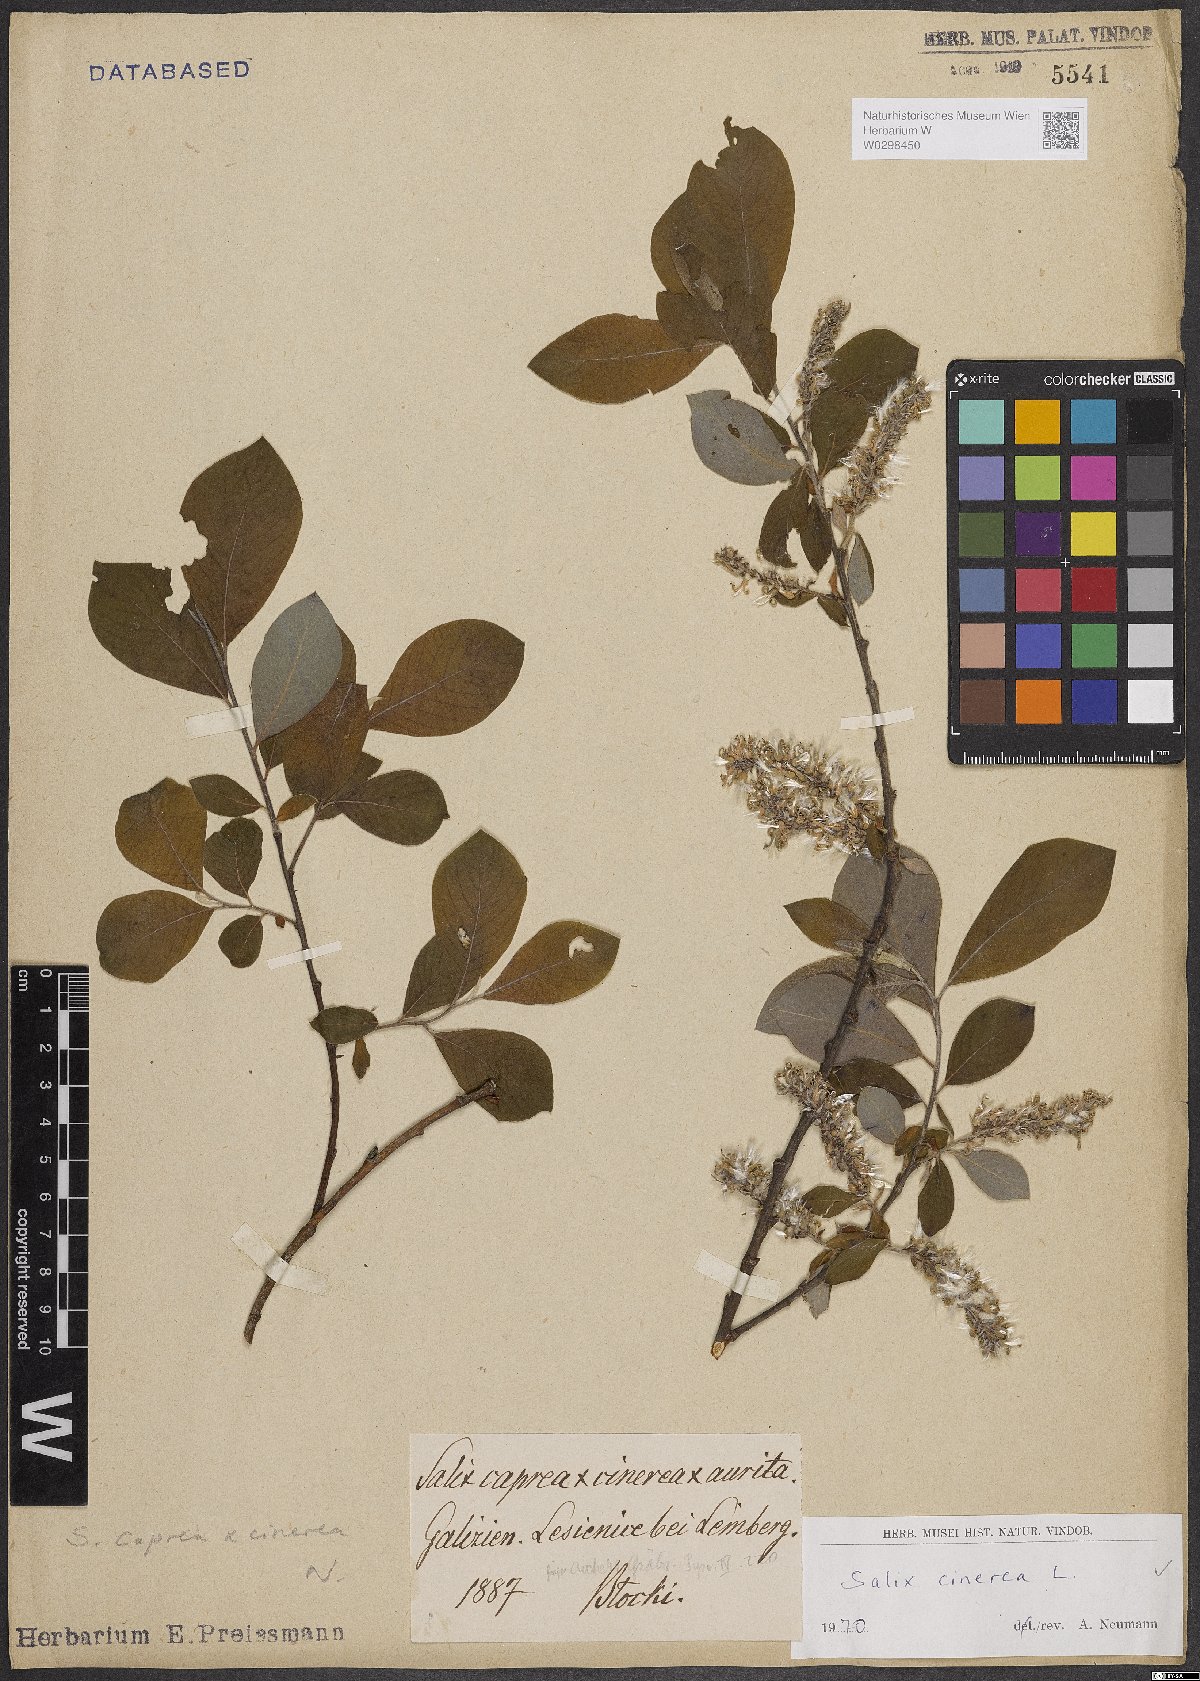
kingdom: Plantae
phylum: Tracheophyta
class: Magnoliopsida
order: Malpighiales
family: Salicaceae
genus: Salix
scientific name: Salix cinerea
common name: Common sallow
